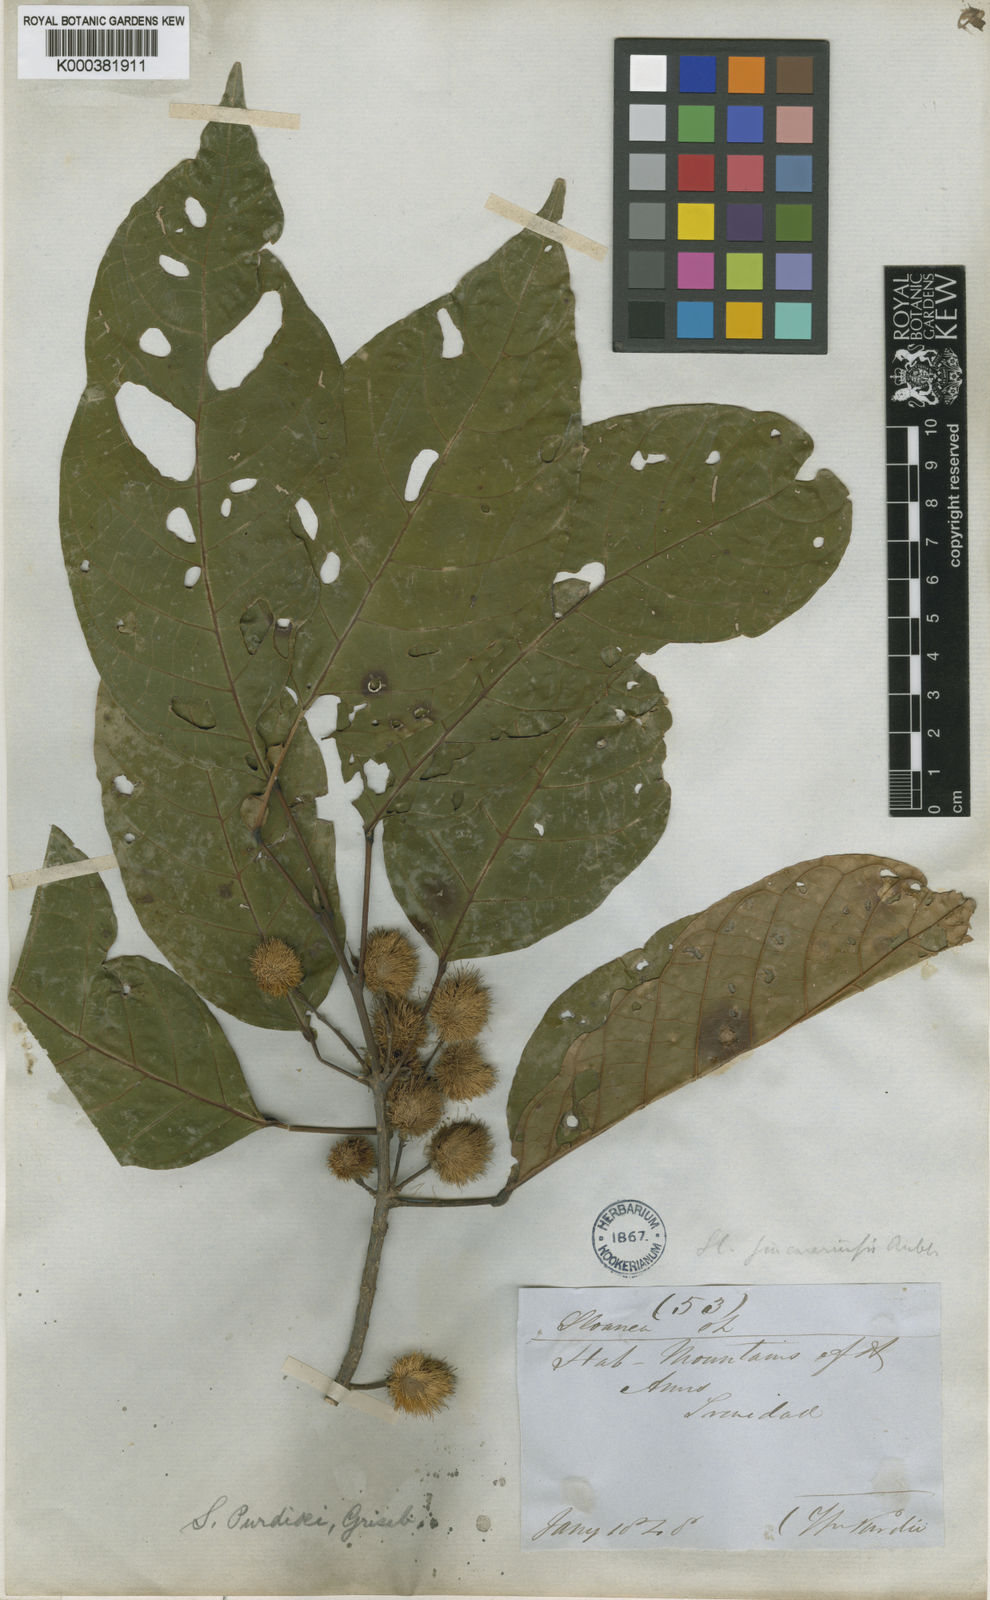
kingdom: Plantae
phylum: Tracheophyta
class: Magnoliopsida
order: Oxalidales
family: Elaeocarpaceae
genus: Sloanea
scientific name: Sloanea guianensis
